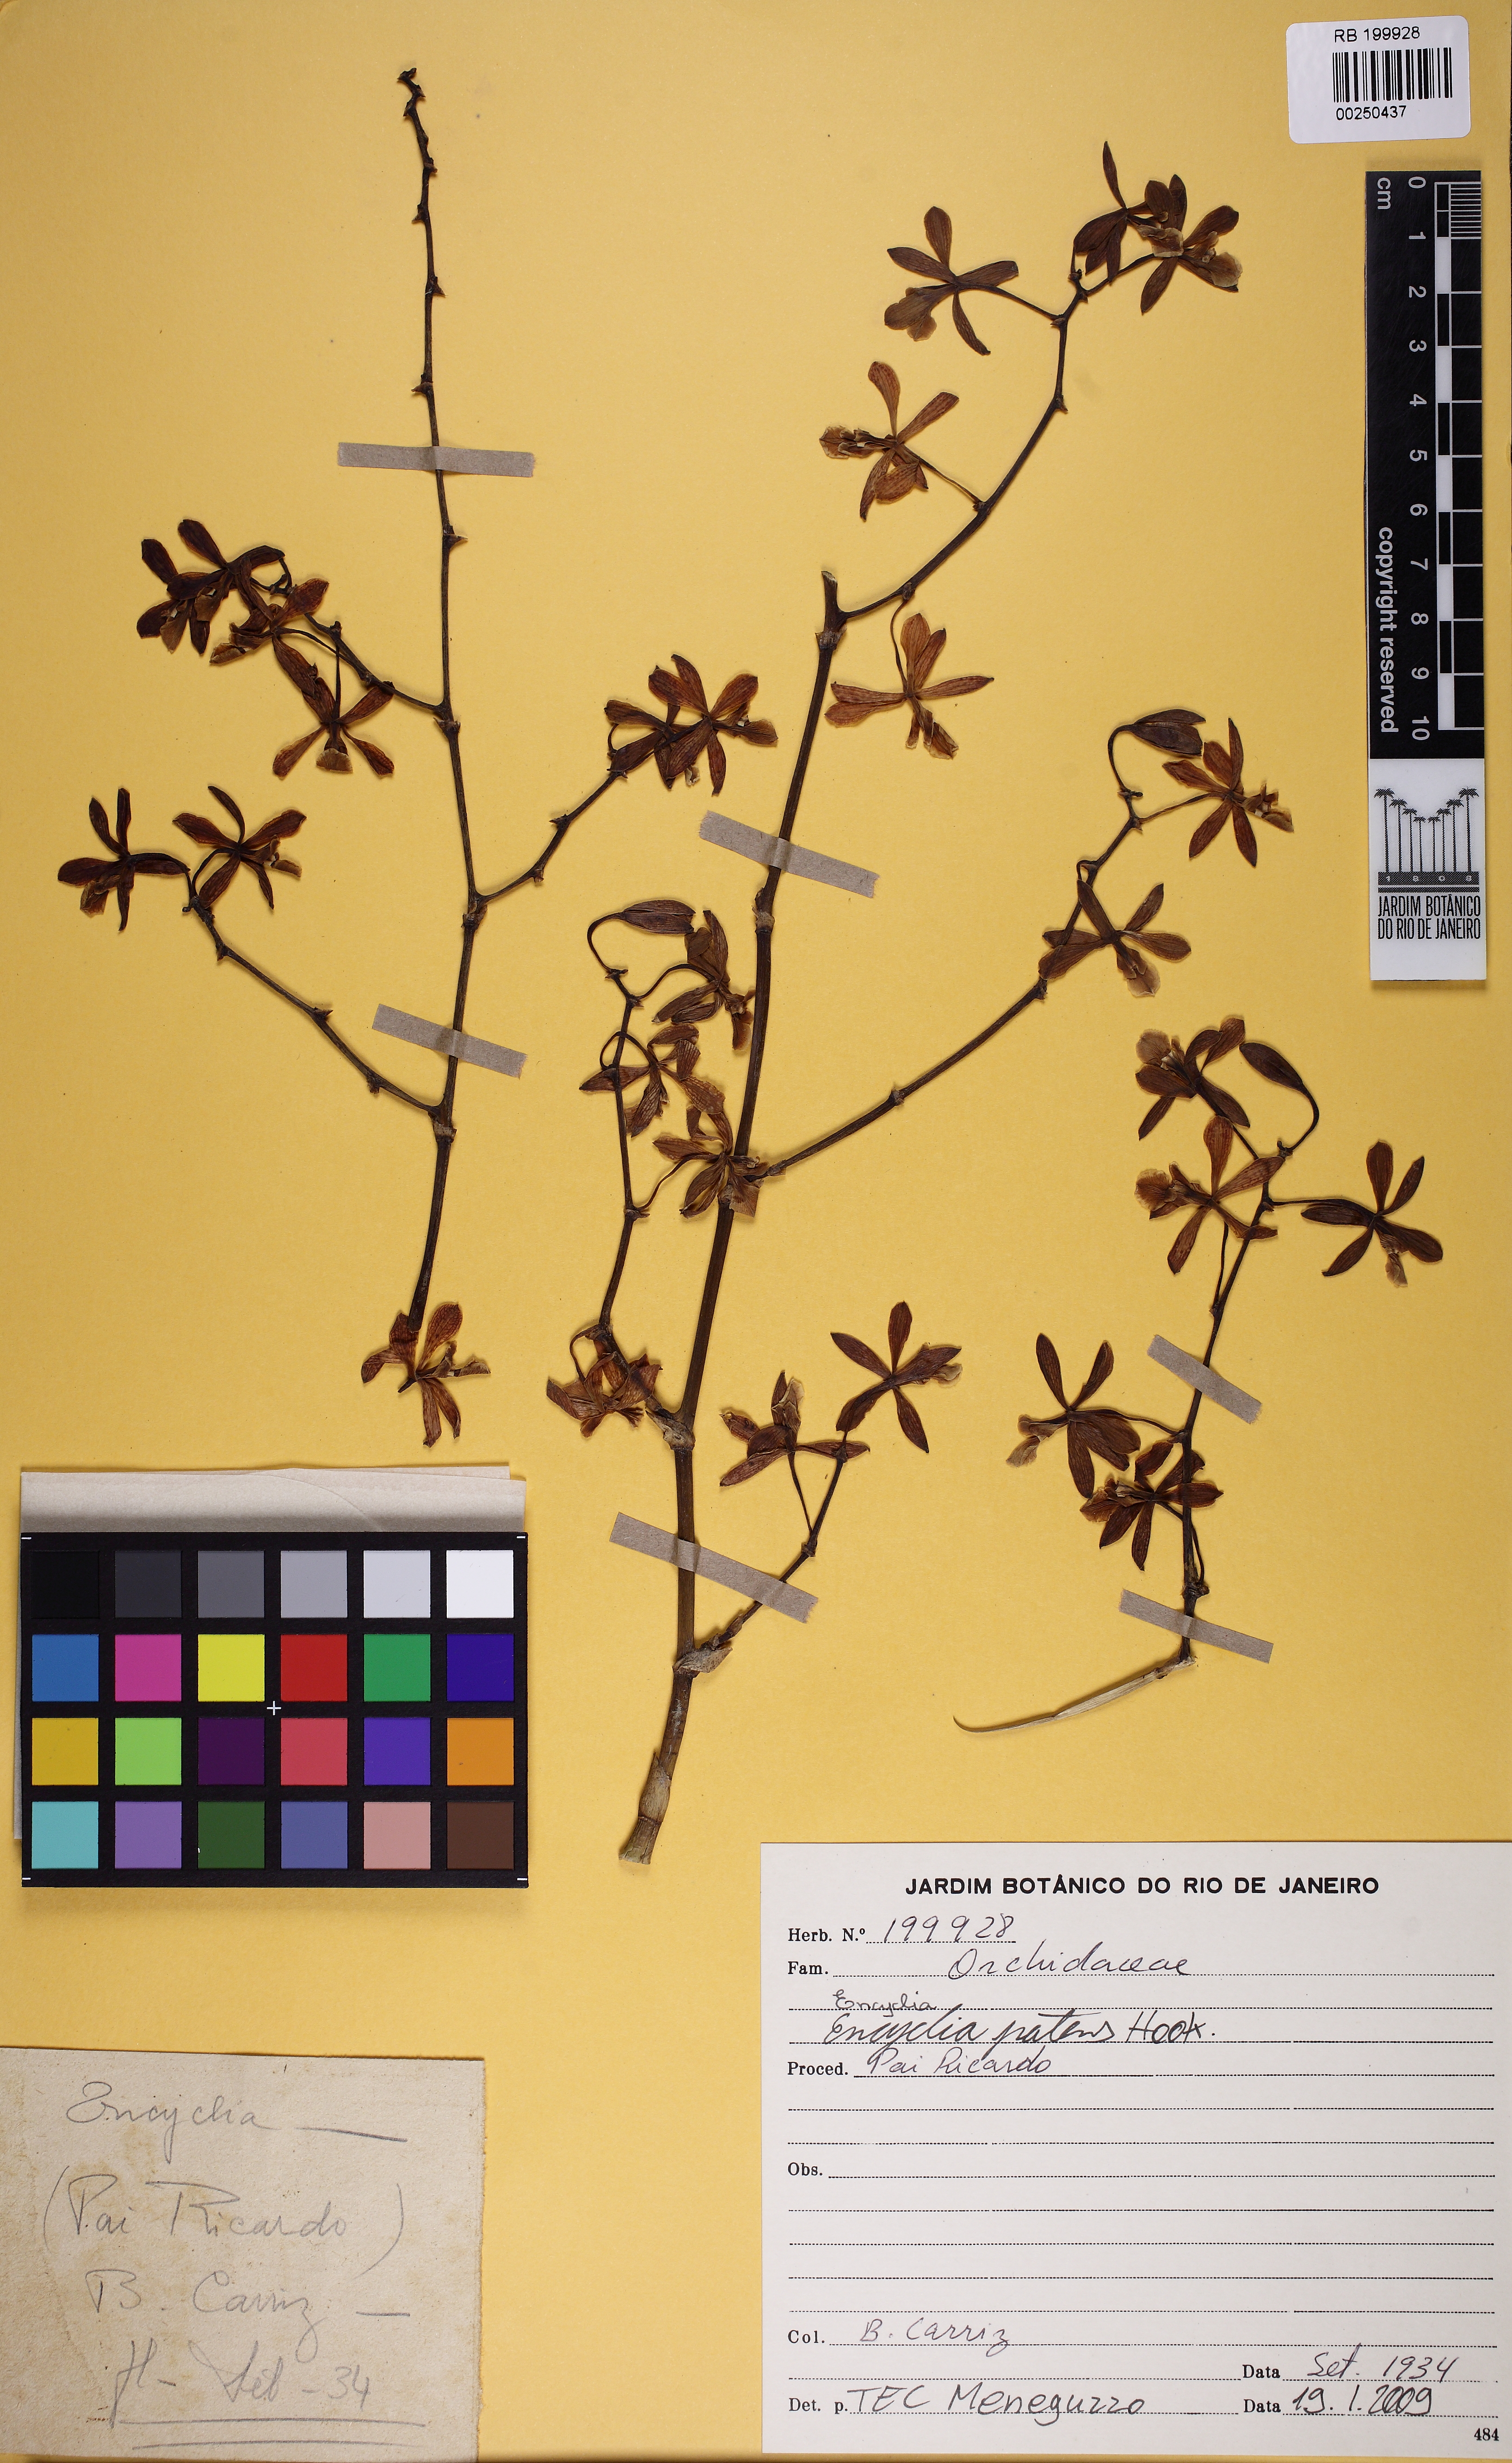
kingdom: Plantae
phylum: Tracheophyta
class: Liliopsida
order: Asparagales
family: Orchidaceae
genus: Encyclia
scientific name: Encyclia patens
